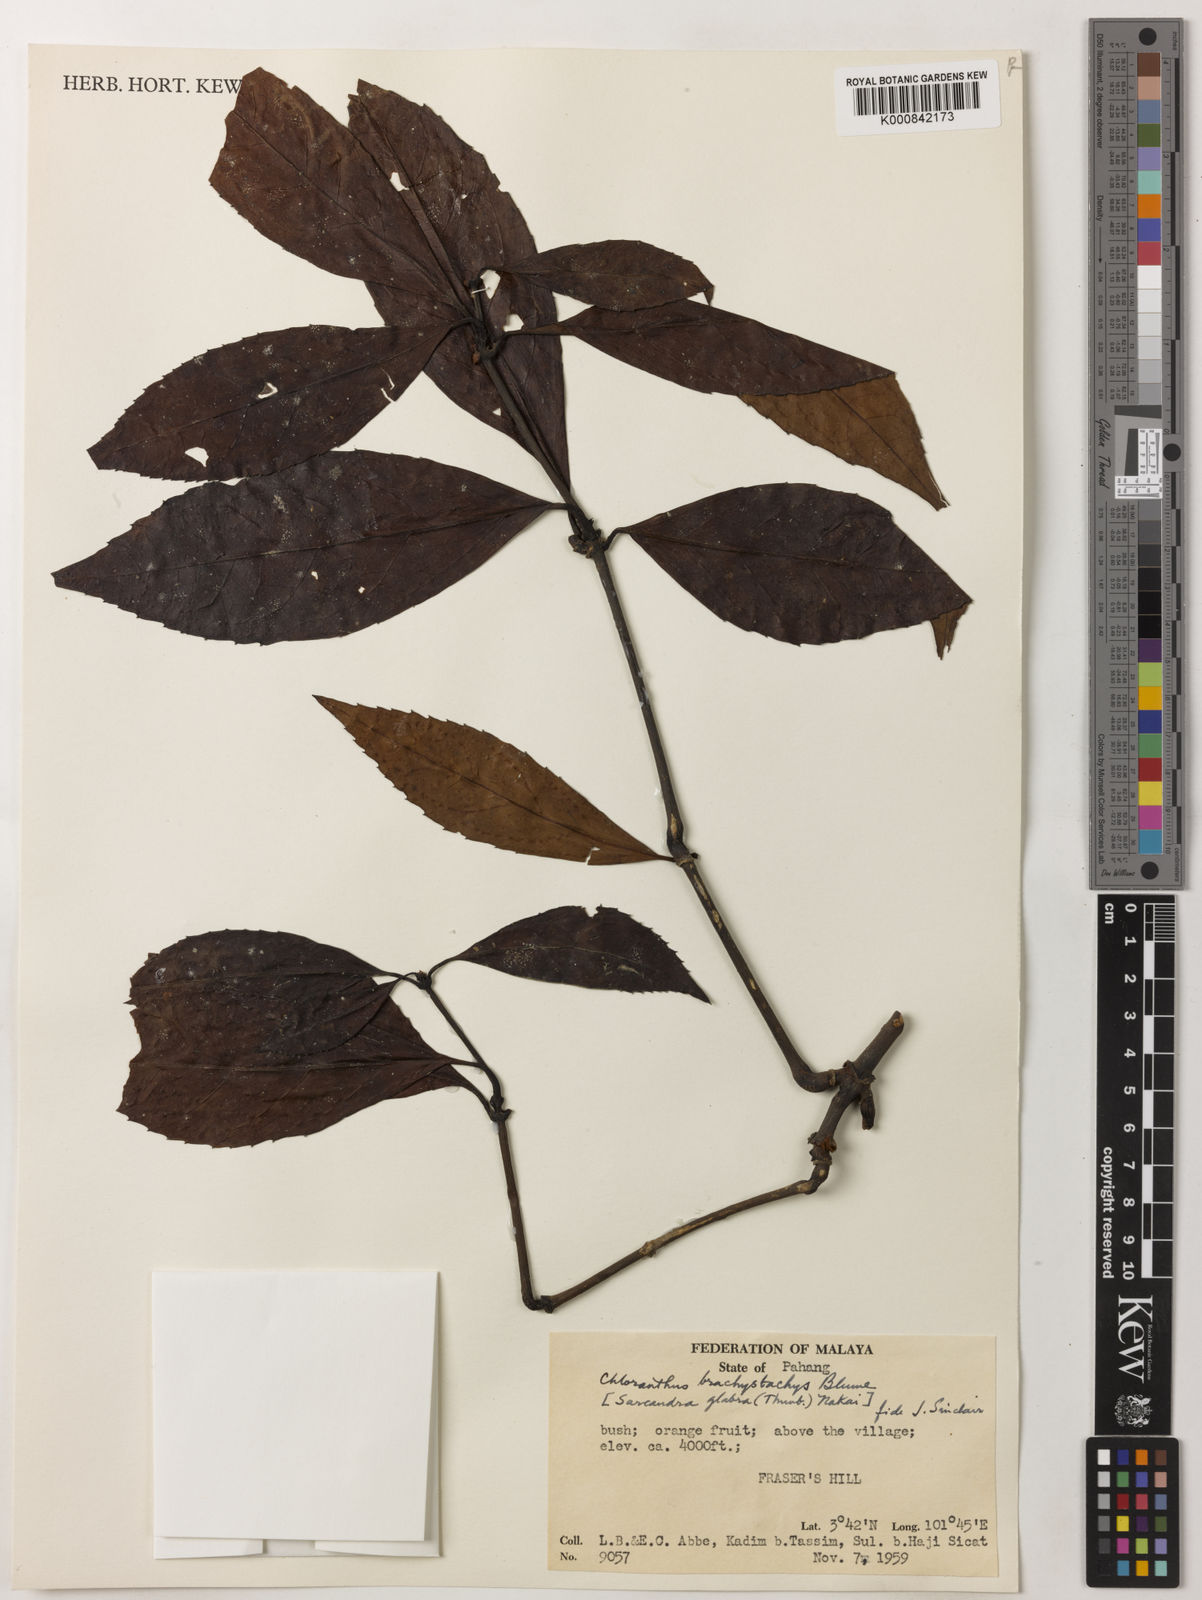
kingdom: Plantae
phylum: Tracheophyta
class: Magnoliopsida
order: Chloranthales
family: Chloranthaceae
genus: Sarcandra
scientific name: Sarcandra glabra
